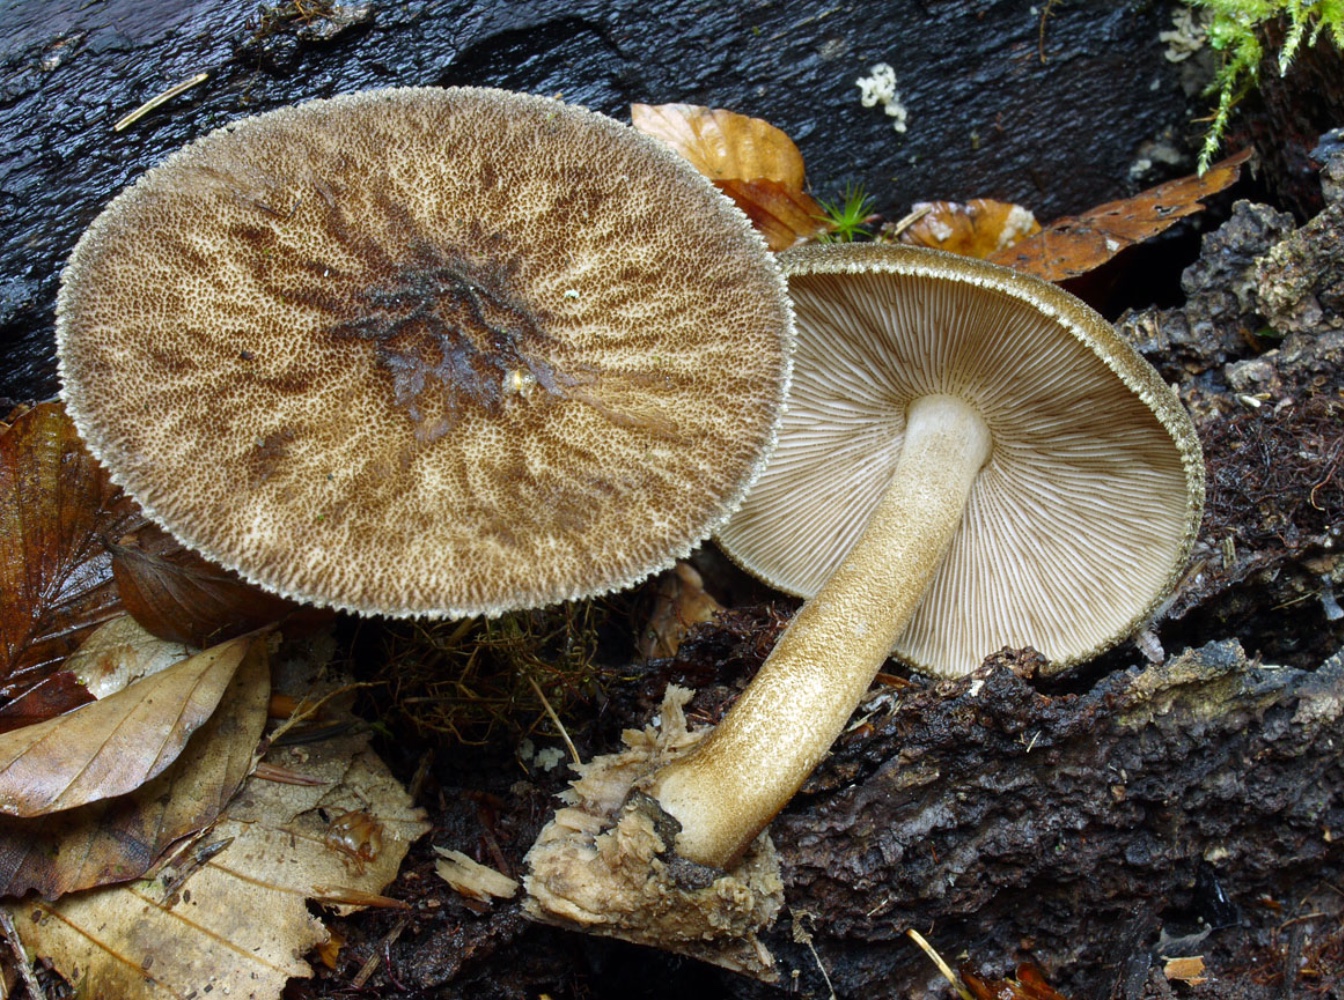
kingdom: Fungi
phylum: Basidiomycota
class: Agaricomycetes
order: Agaricales
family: Pluteaceae
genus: Pluteus
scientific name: Pluteus umbrosus
